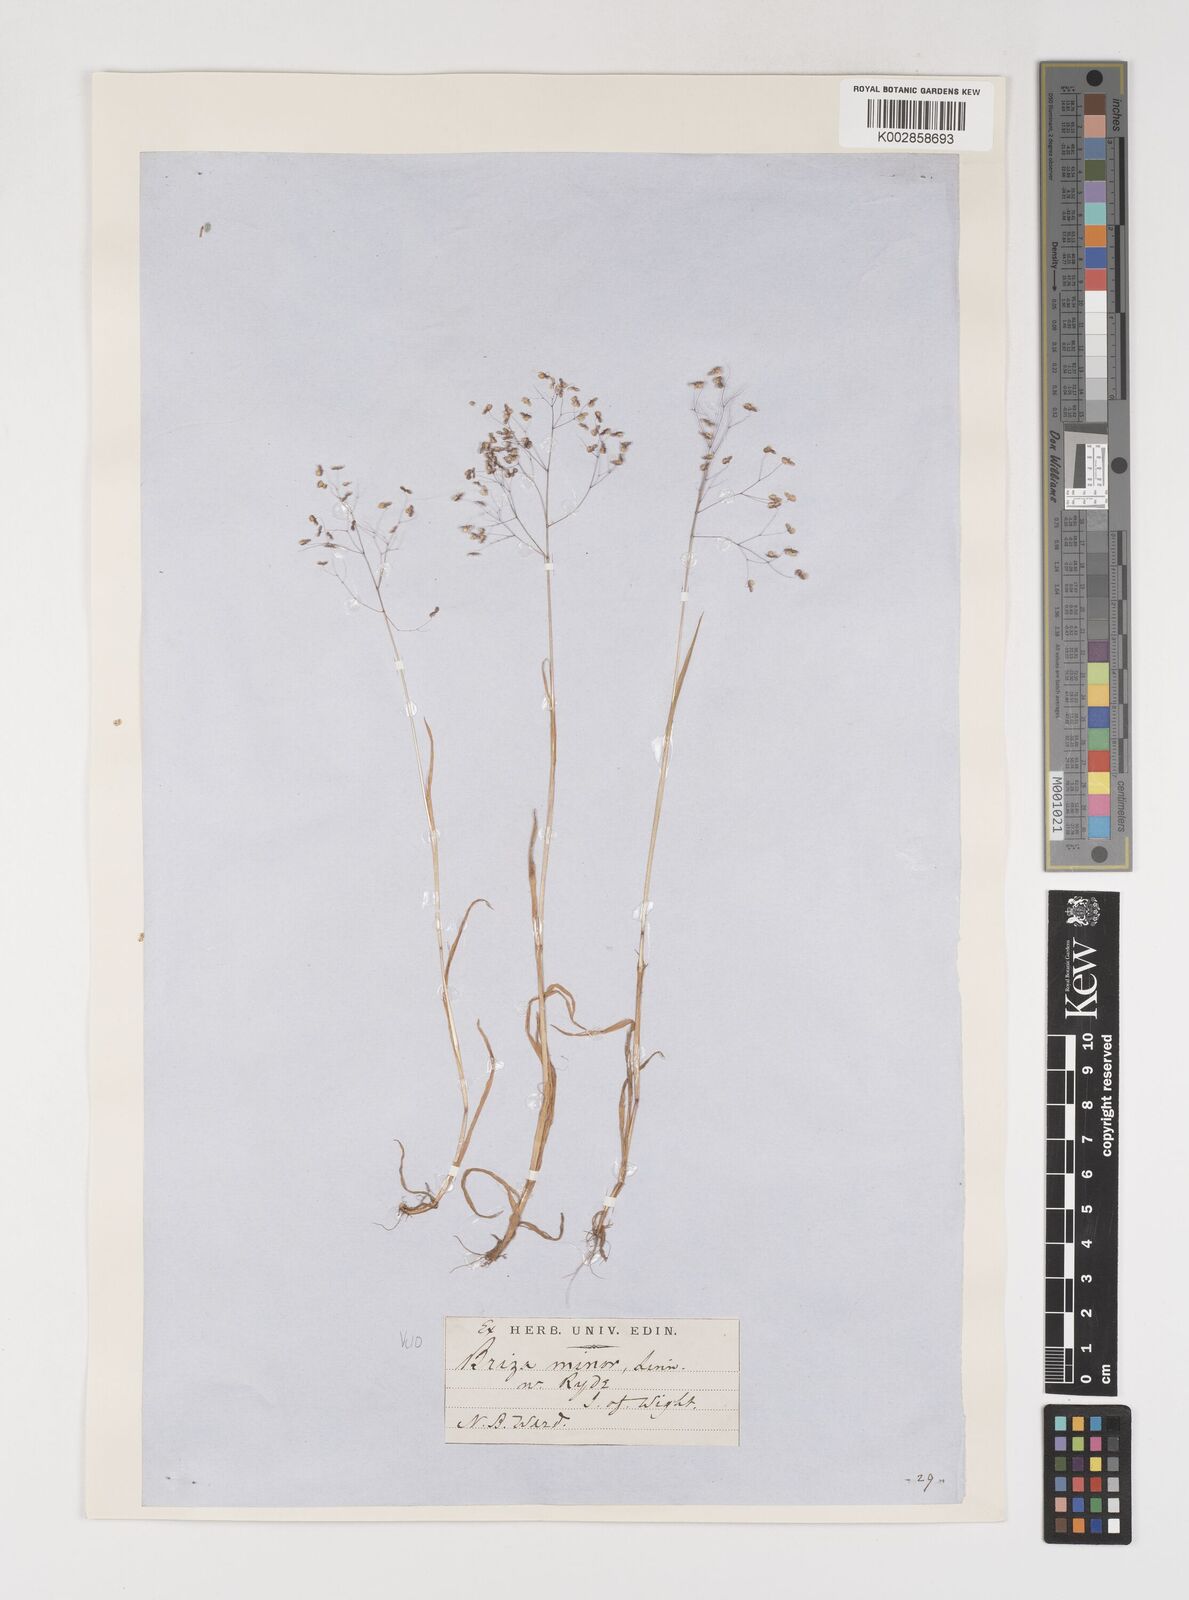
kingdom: Plantae
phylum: Tracheophyta
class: Liliopsida
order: Poales
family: Poaceae
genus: Briza
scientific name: Briza minor
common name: Lesser quaking-grass
